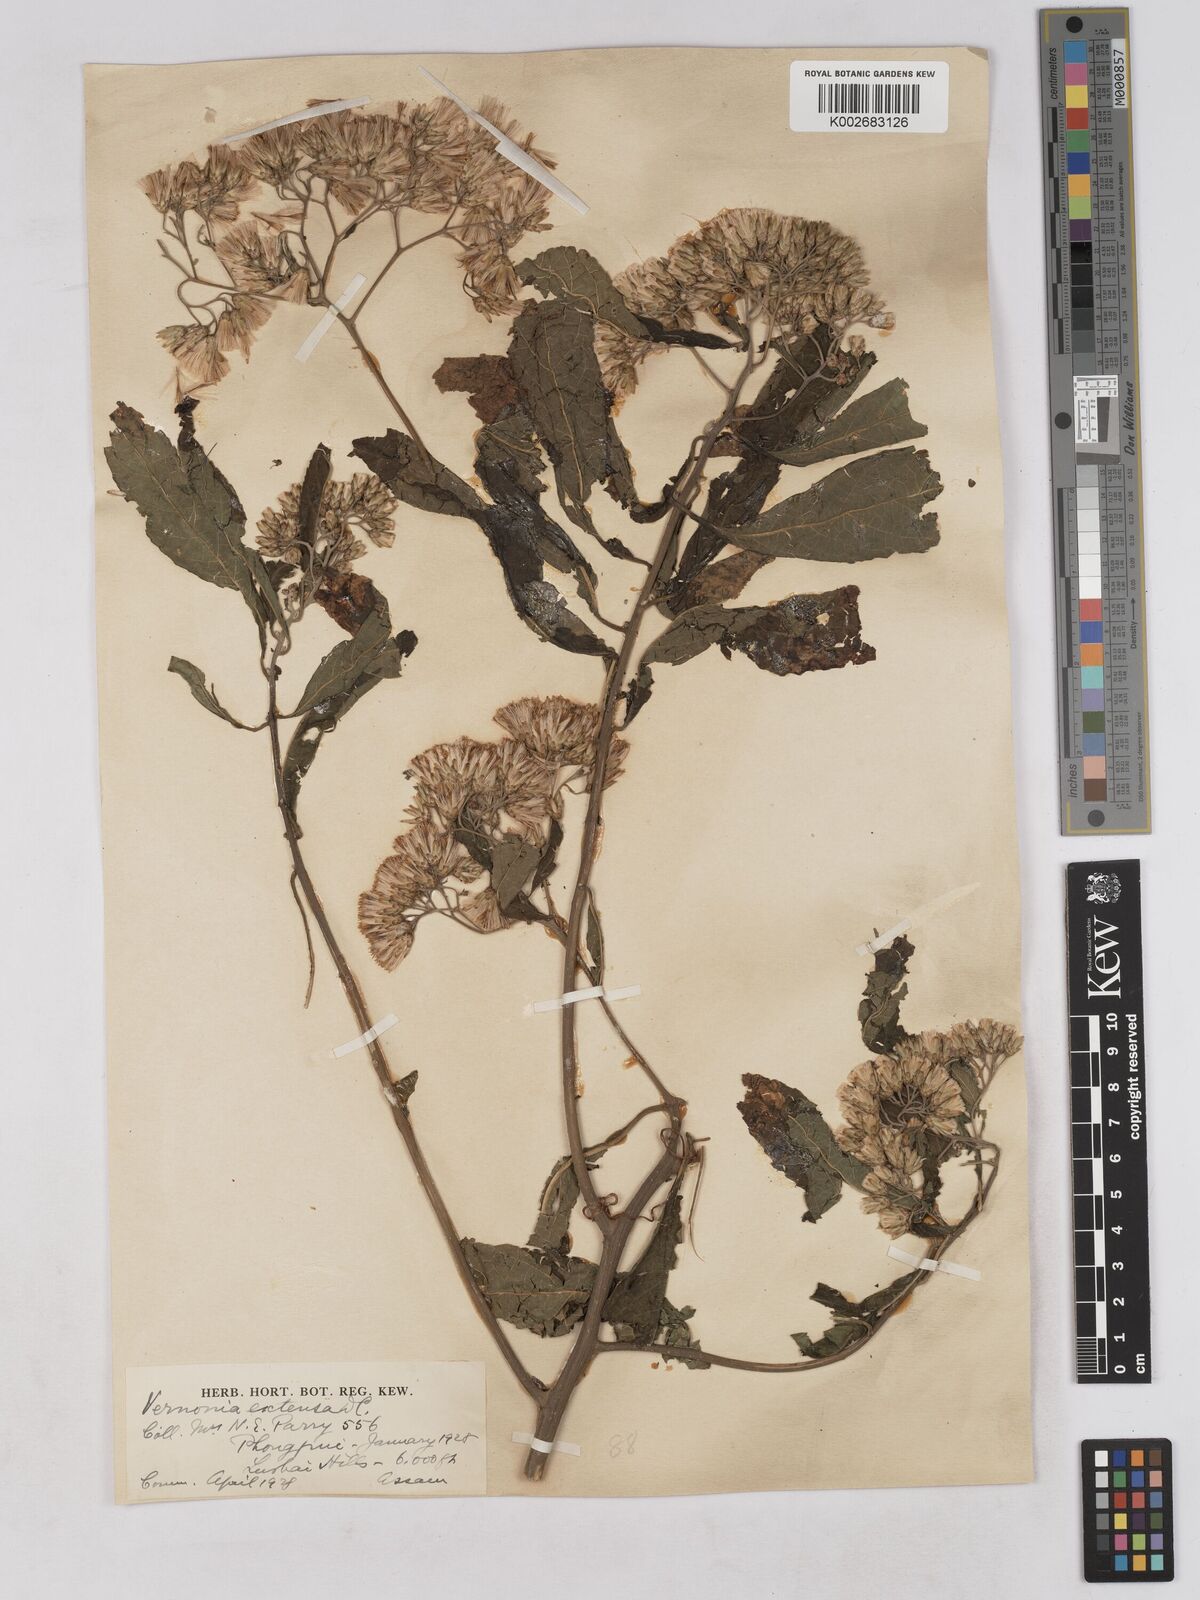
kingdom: Plantae
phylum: Tracheophyta
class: Magnoliopsida
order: Asterales
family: Asteraceae
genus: Gymnanthemum
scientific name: Gymnanthemum extensum
